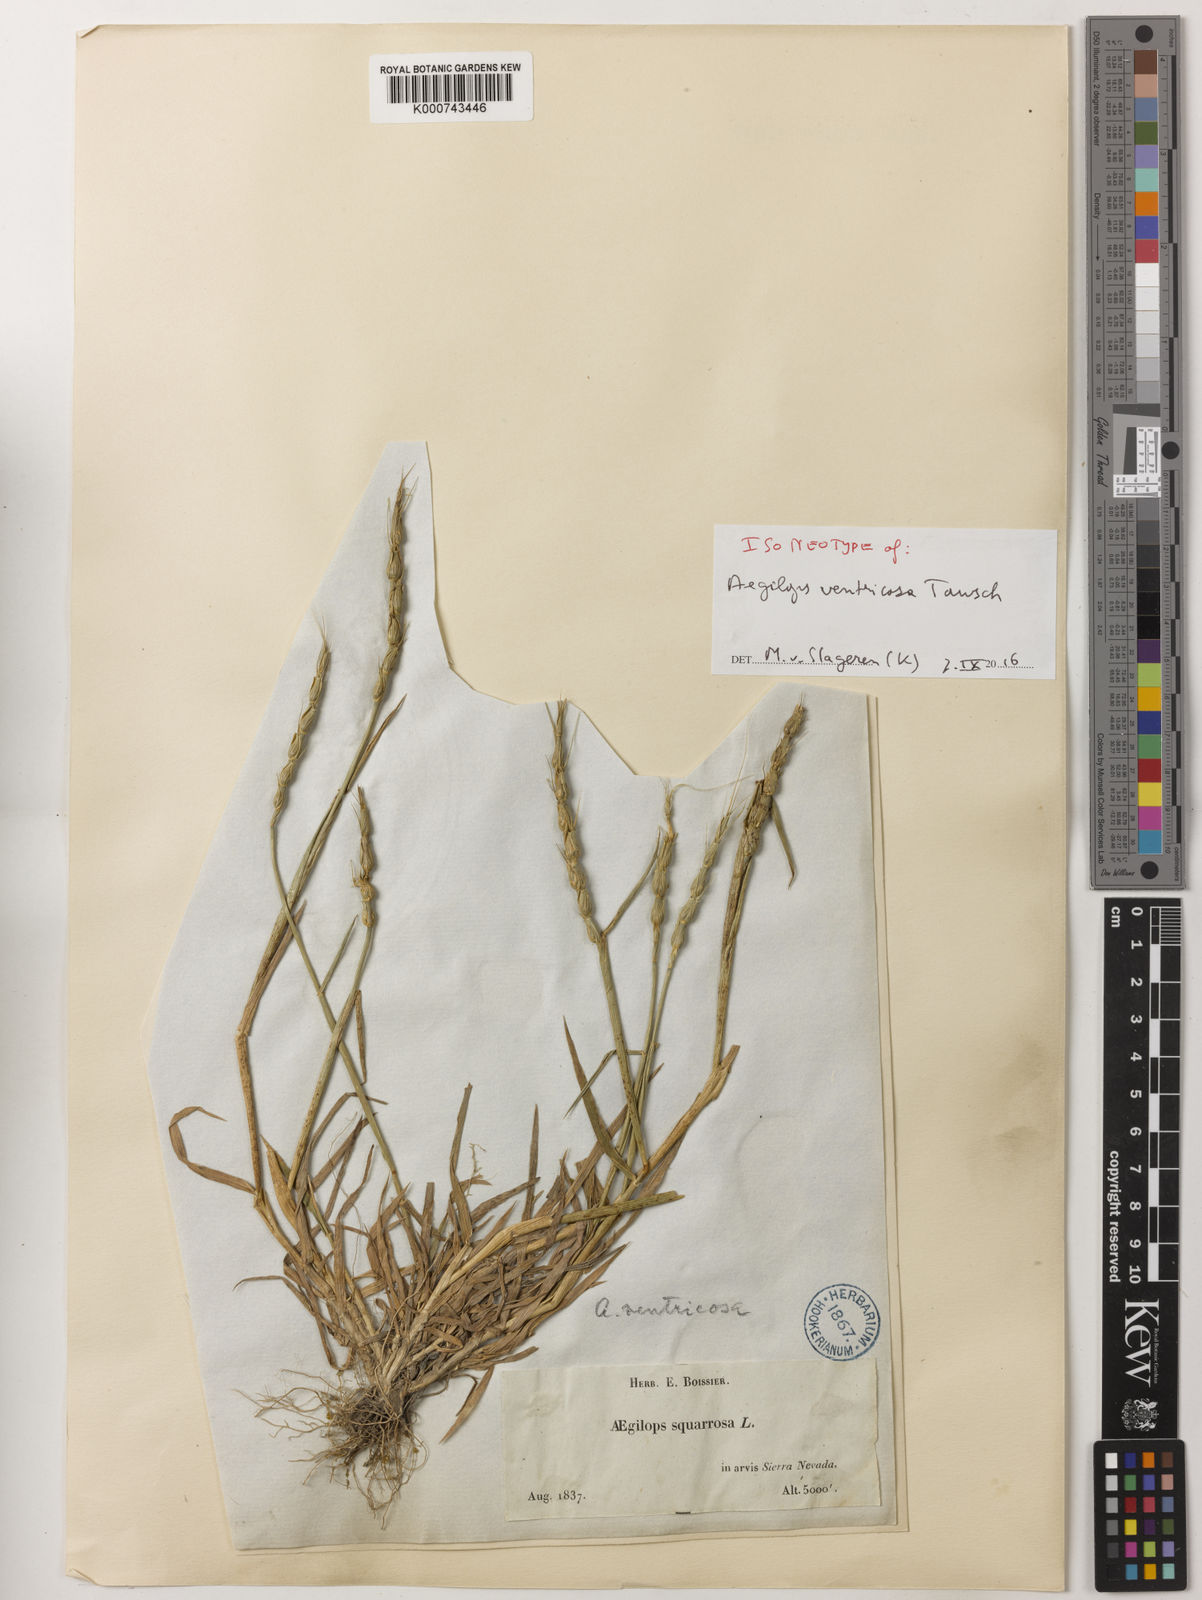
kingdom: Plantae
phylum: Tracheophyta
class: Liliopsida
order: Poales
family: Poaceae
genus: Aegilops
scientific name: Aegilops ventricosa
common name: Swollen goat grass
